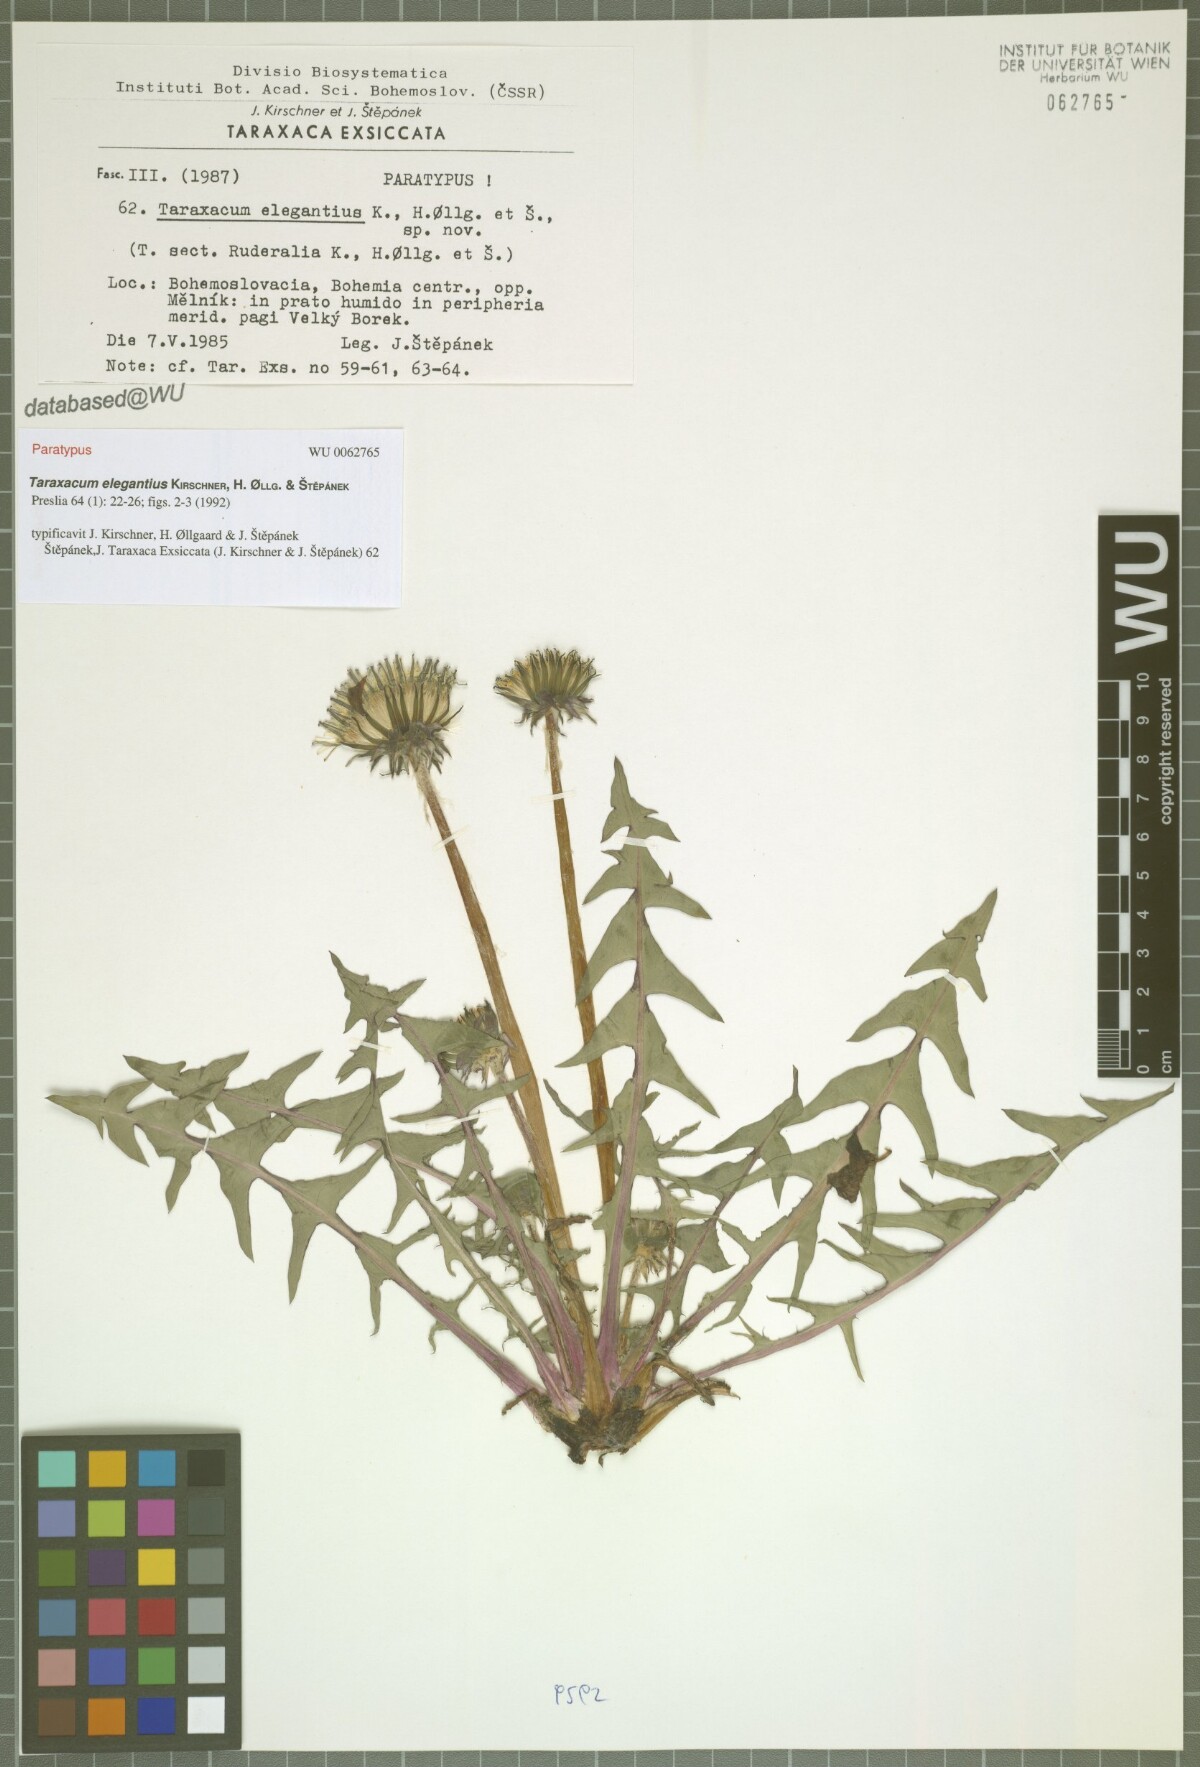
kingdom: Plantae
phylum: Tracheophyta
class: Magnoliopsida
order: Asterales
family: Asteraceae
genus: Taraxacum
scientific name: Taraxacum elegantius
